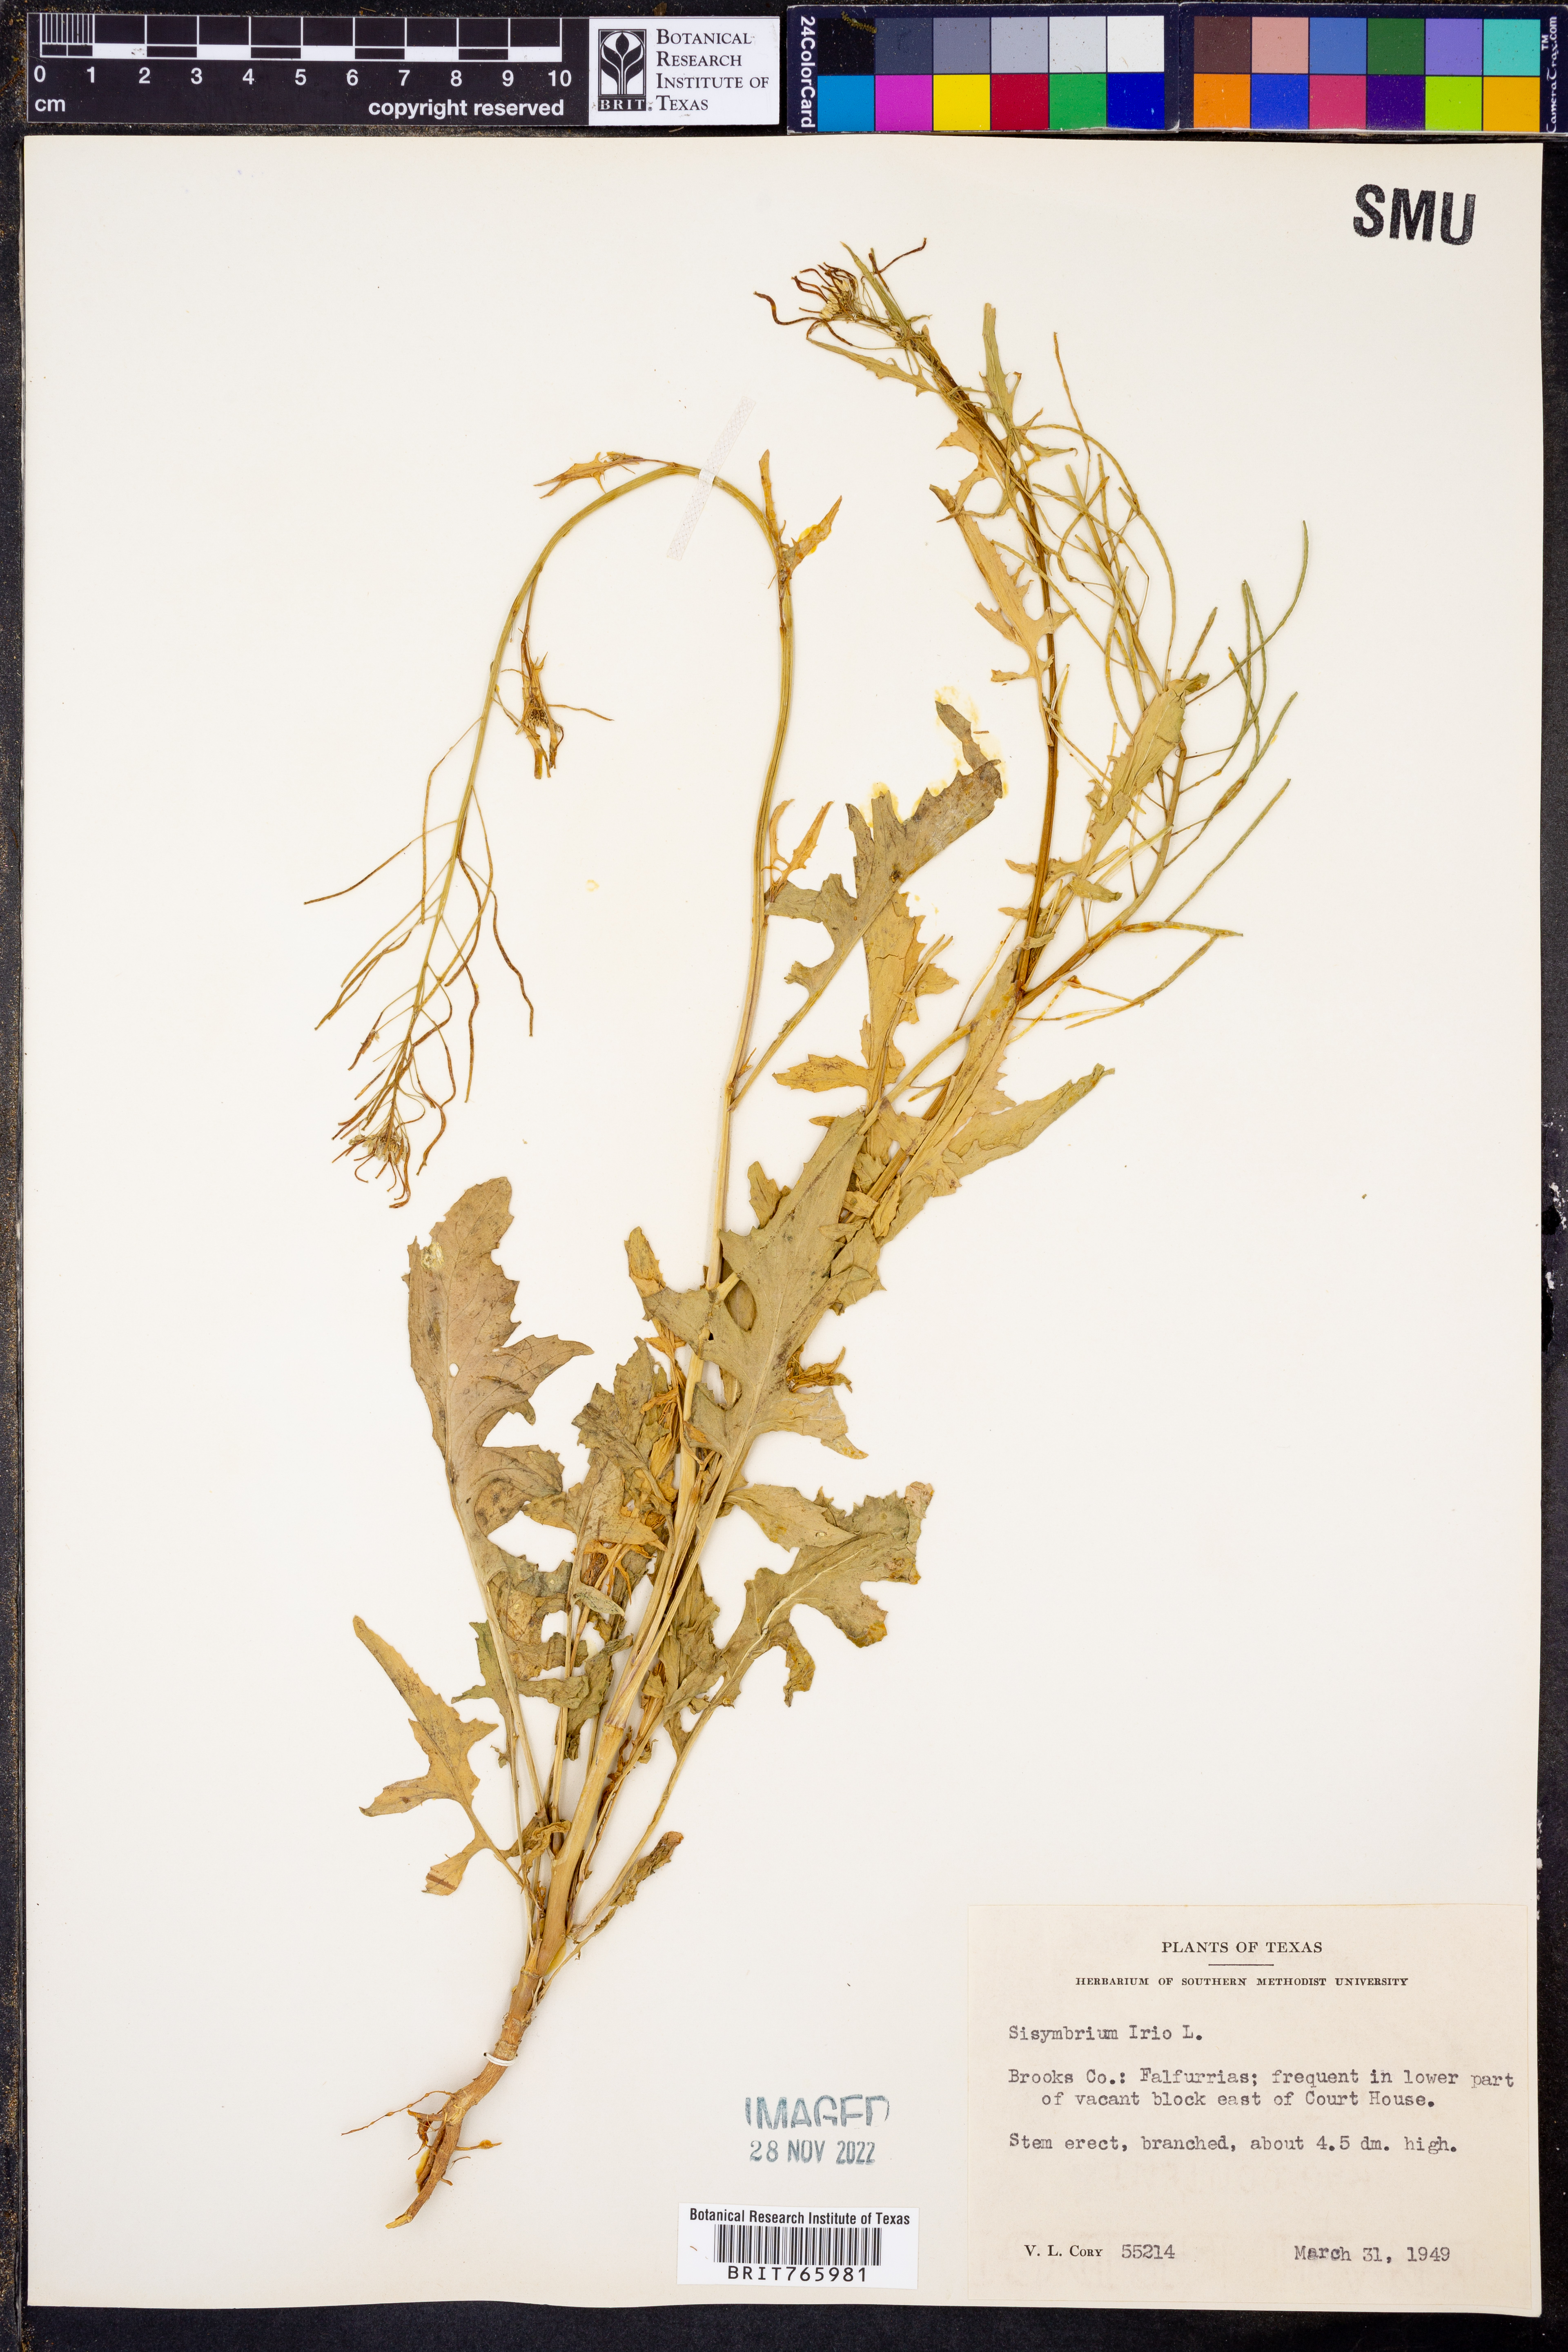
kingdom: Plantae
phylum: Tracheophyta
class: Magnoliopsida
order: Brassicales
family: Brassicaceae
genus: Sisymbrium
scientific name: Sisymbrium irio
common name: London rocket
